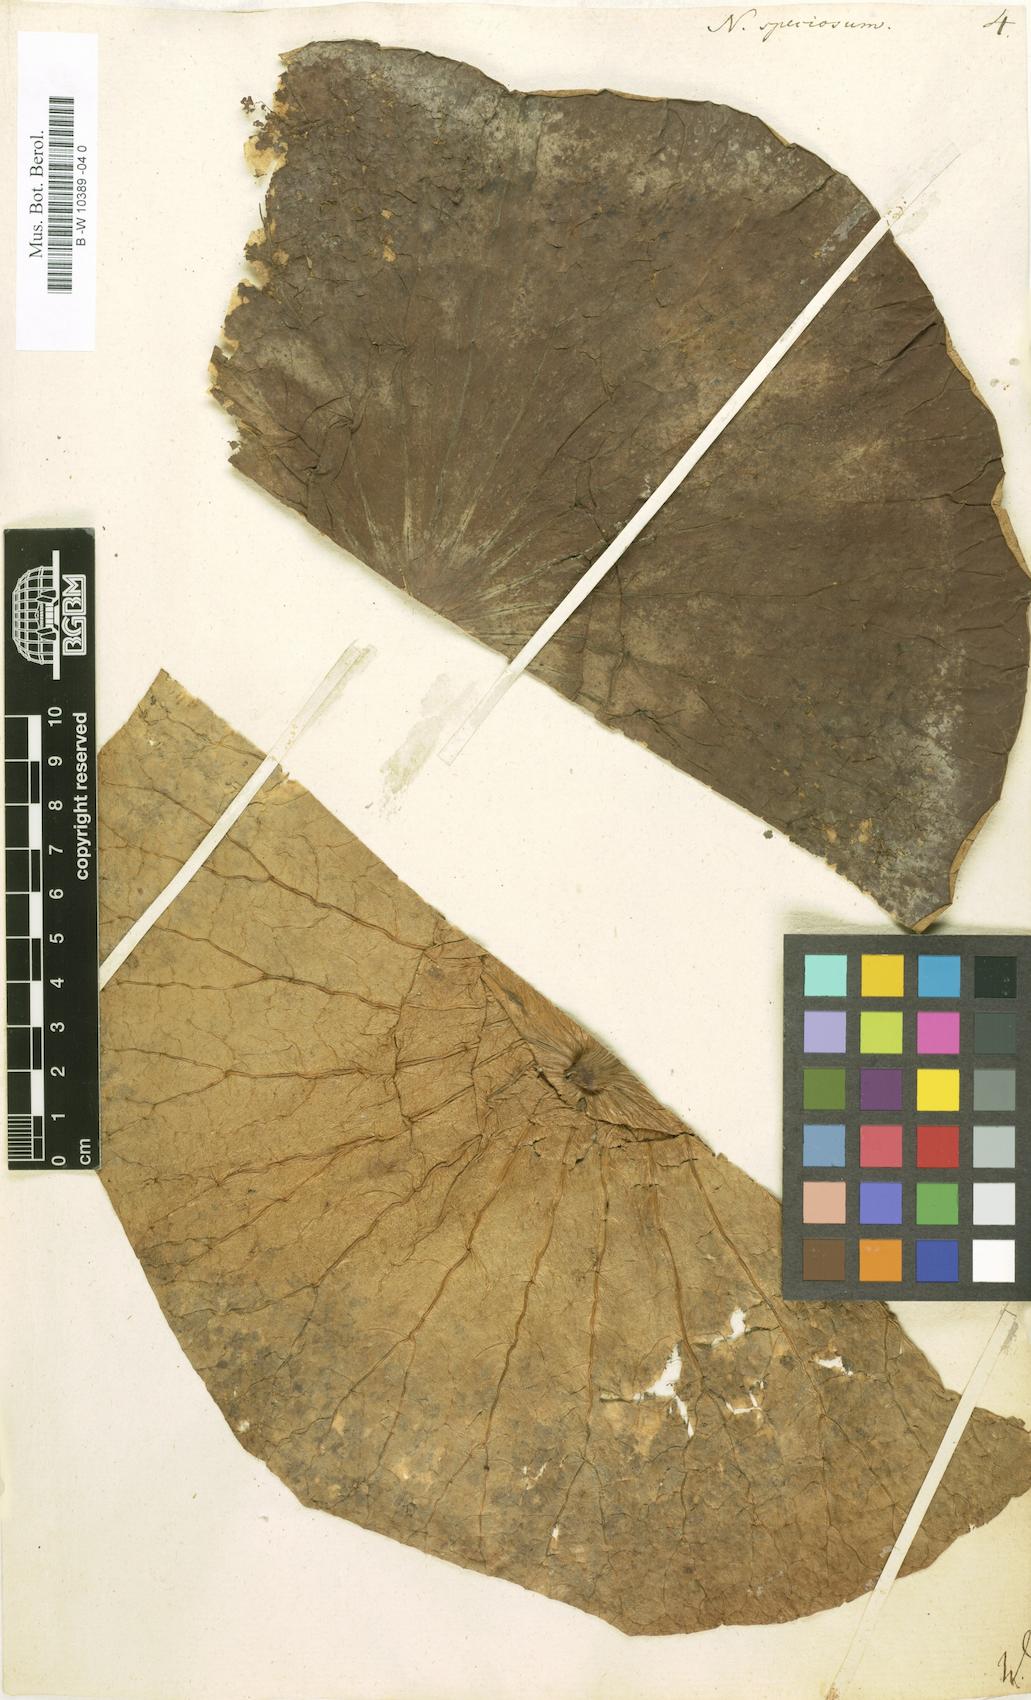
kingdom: Plantae
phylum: Tracheophyta
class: Magnoliopsida
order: Proteales
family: Nelumbonaceae
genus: Nelumbo
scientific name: Nelumbo nucifera
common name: Sacred lotus
